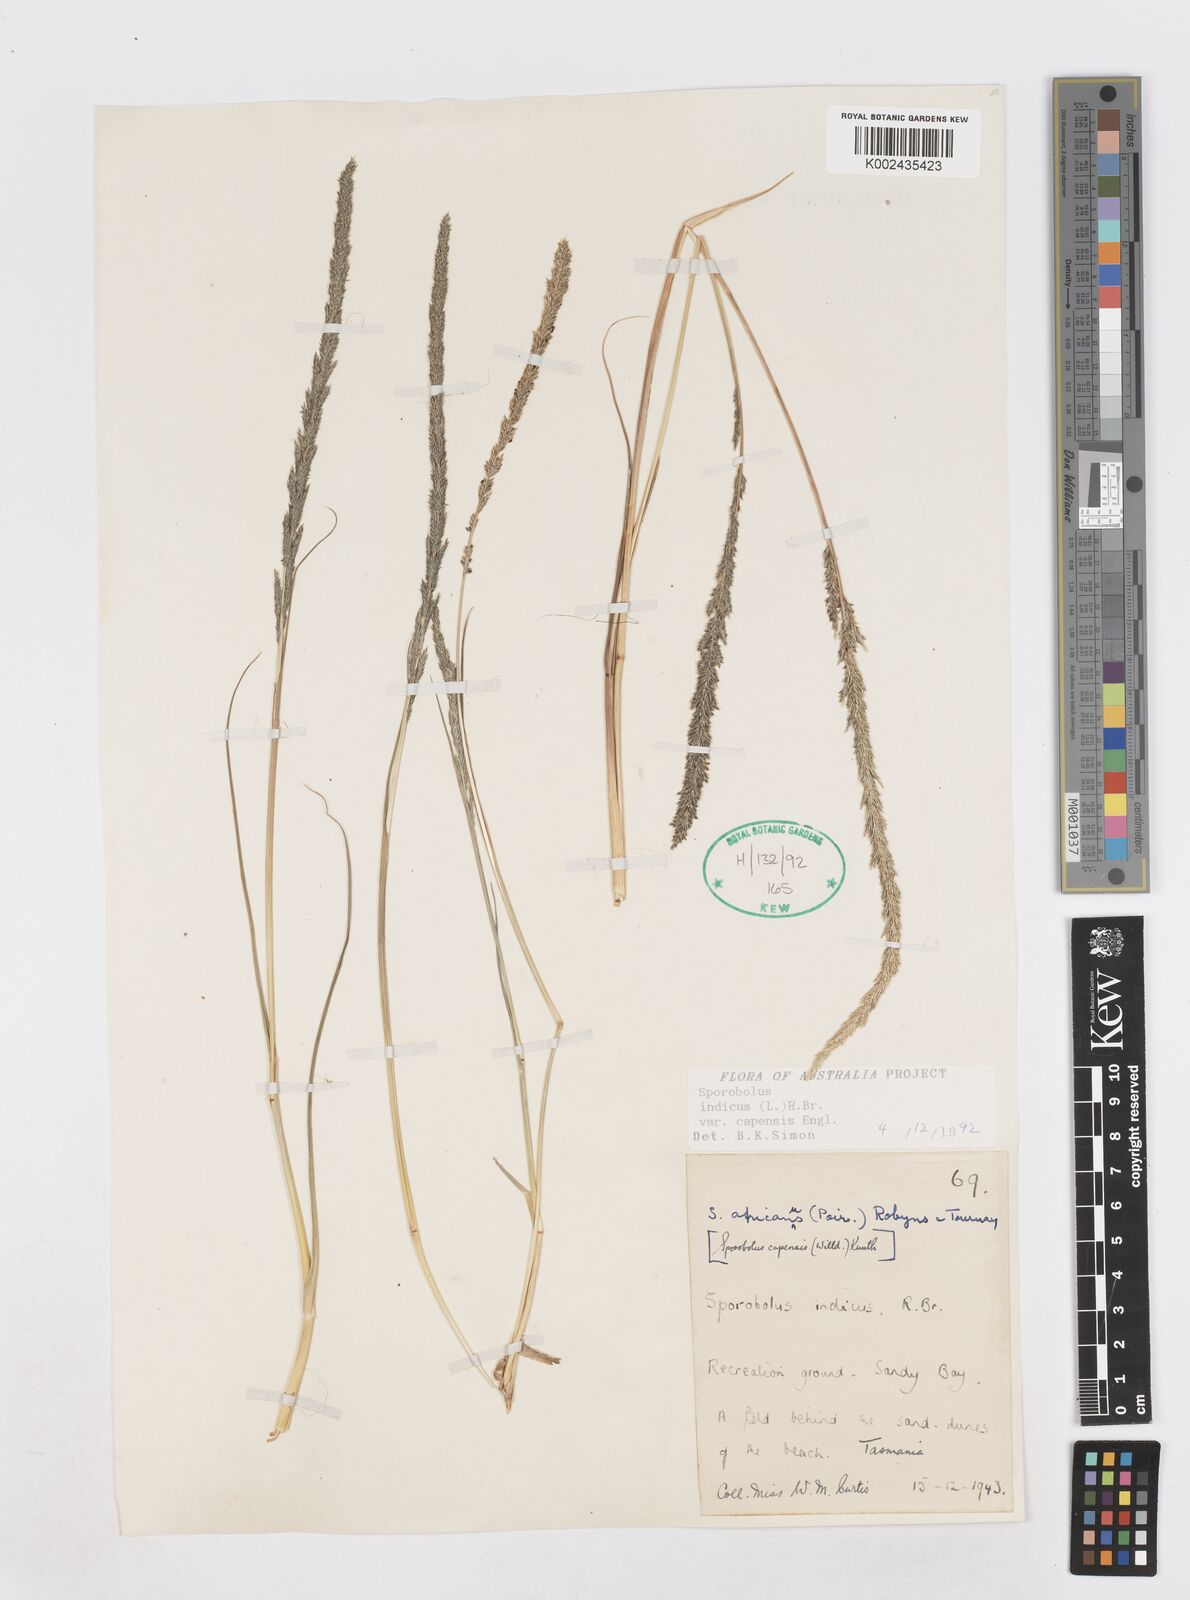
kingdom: Plantae
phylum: Tracheophyta
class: Liliopsida
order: Poales
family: Poaceae
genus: Sporobolus
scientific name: Sporobolus africanus
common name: African dropseed
